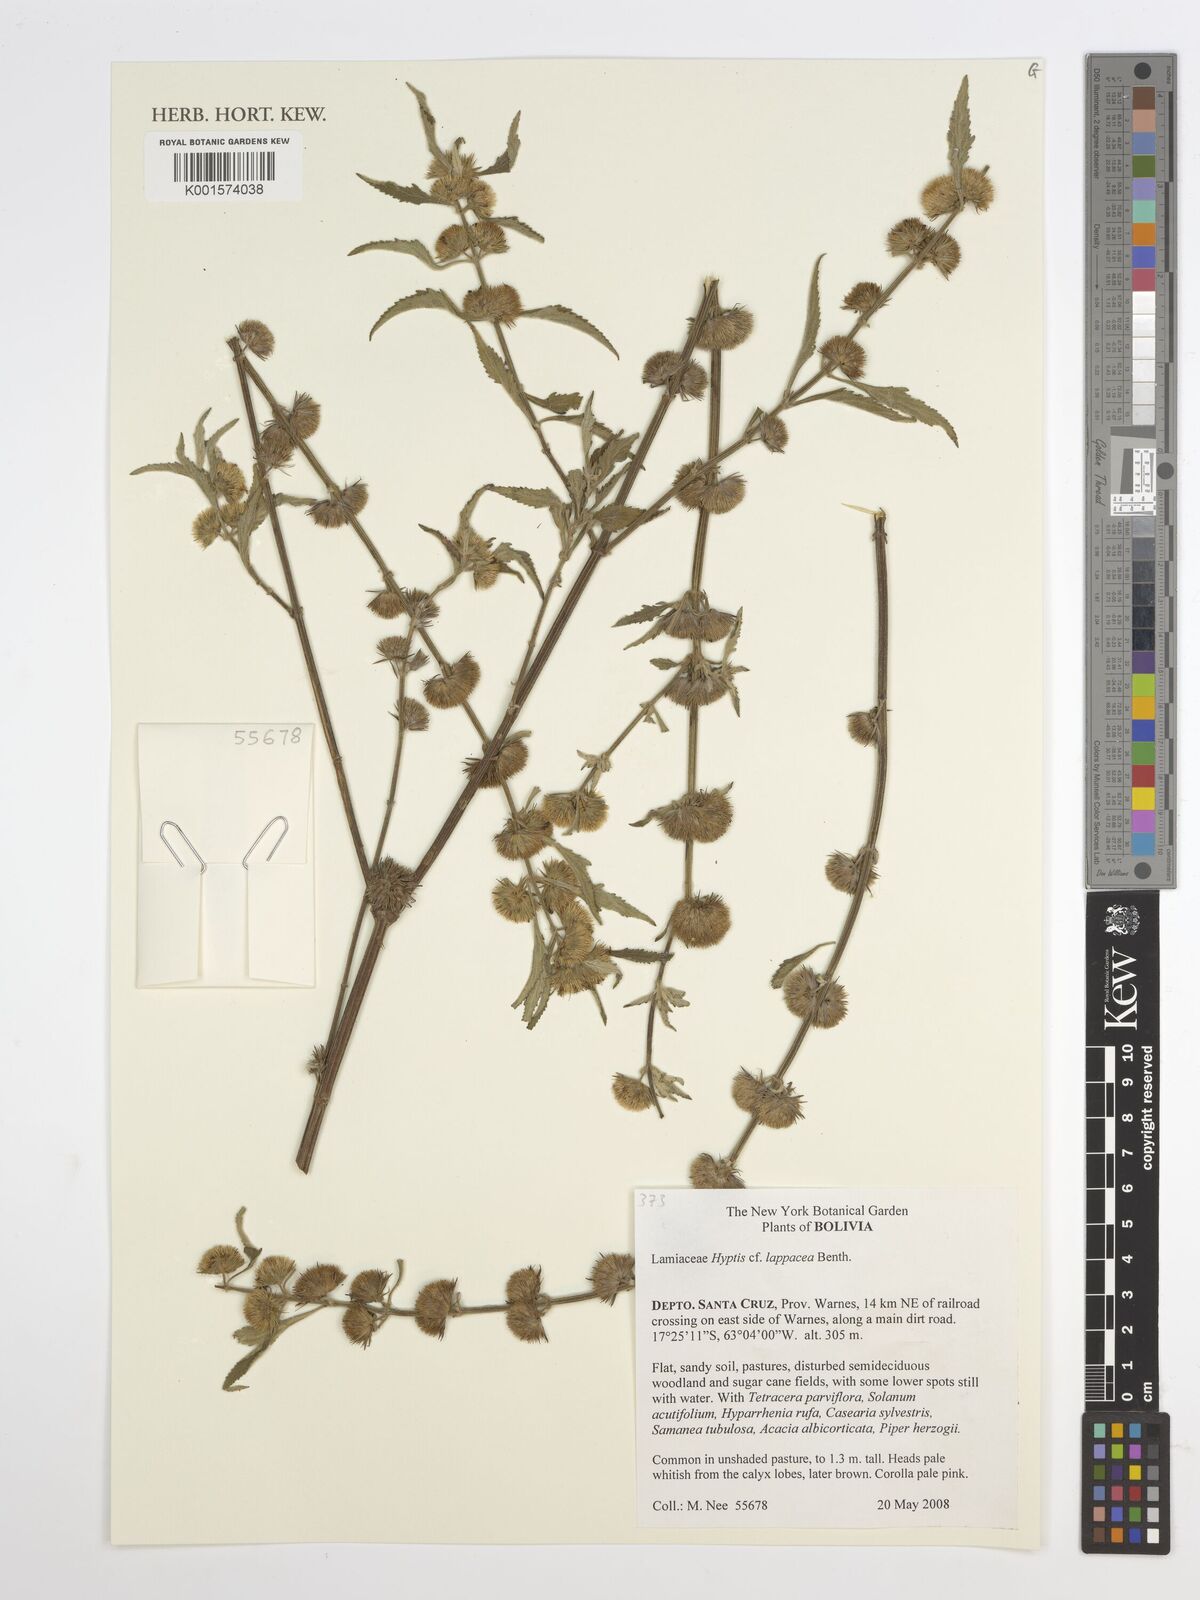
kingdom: Plantae
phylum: Tracheophyta
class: Magnoliopsida
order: Lamiales
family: Lamiaceae
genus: Hyptis
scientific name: Hyptis lappacea
